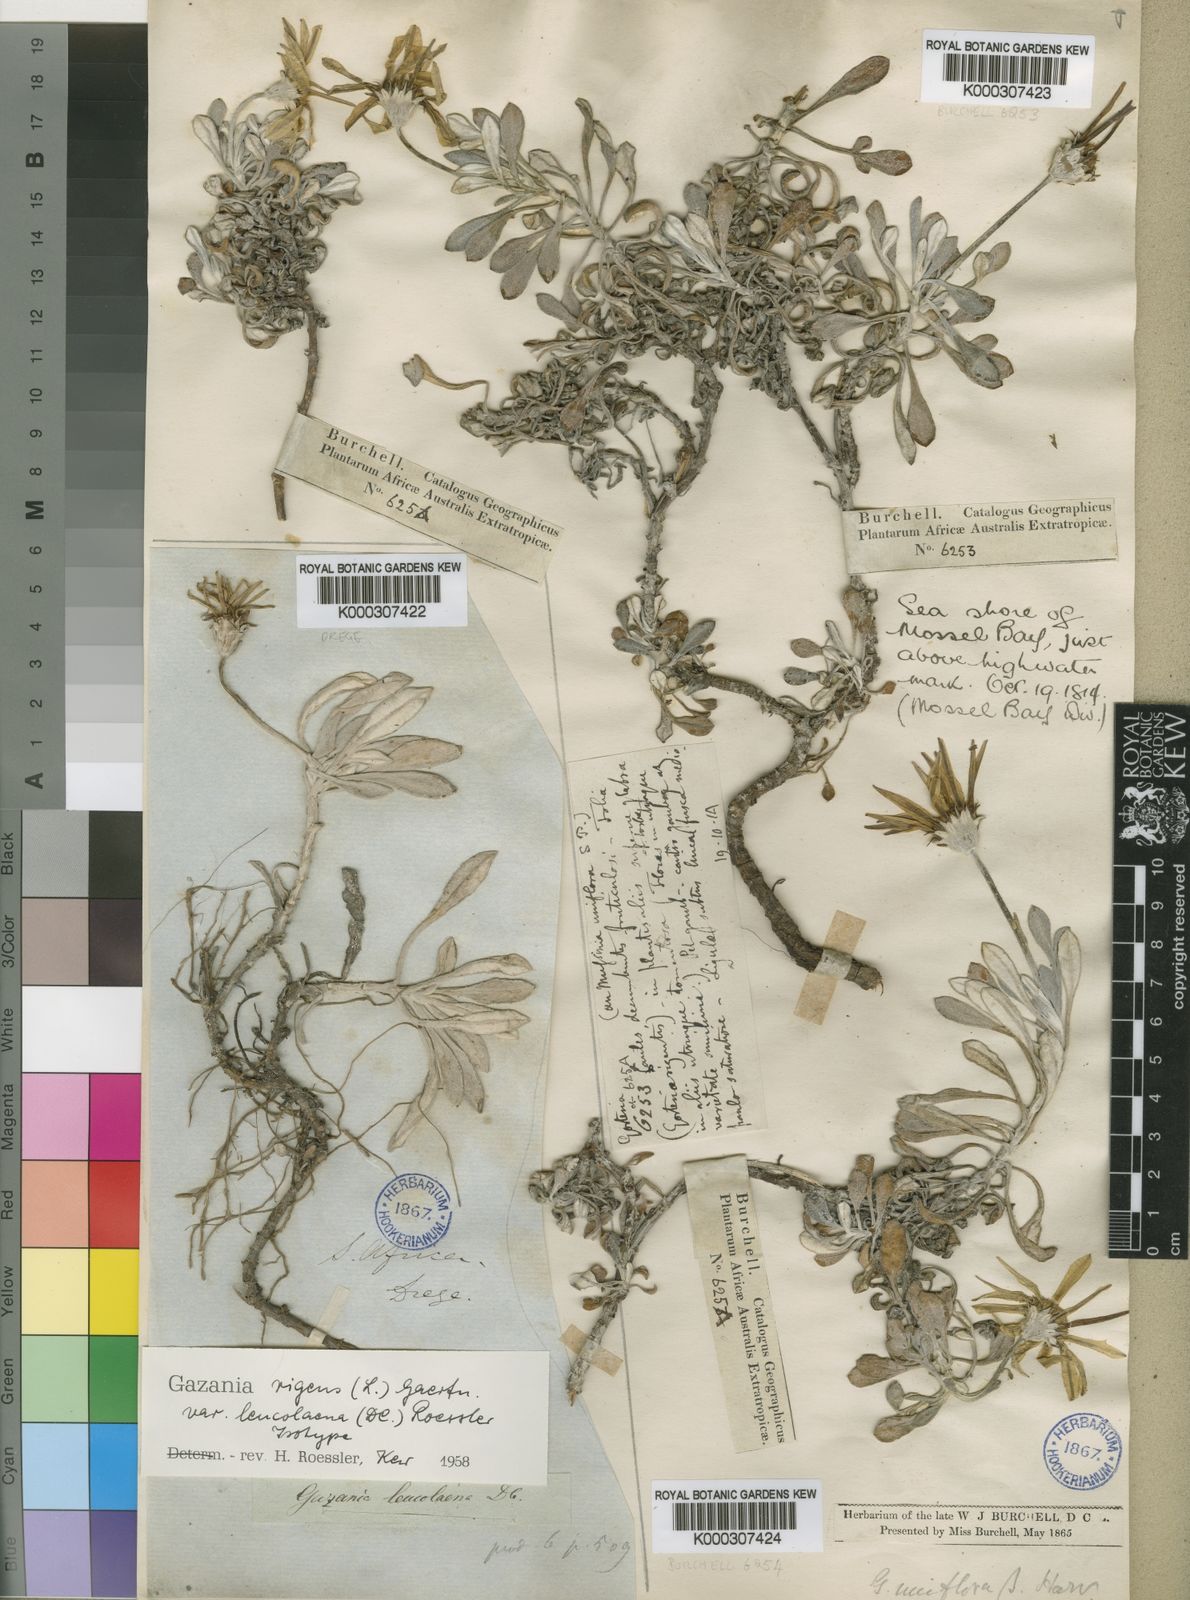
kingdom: Plantae
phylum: Tracheophyta
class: Magnoliopsida
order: Asterales
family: Asteraceae
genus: Gazania
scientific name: Gazania rigens
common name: Treasureflower
